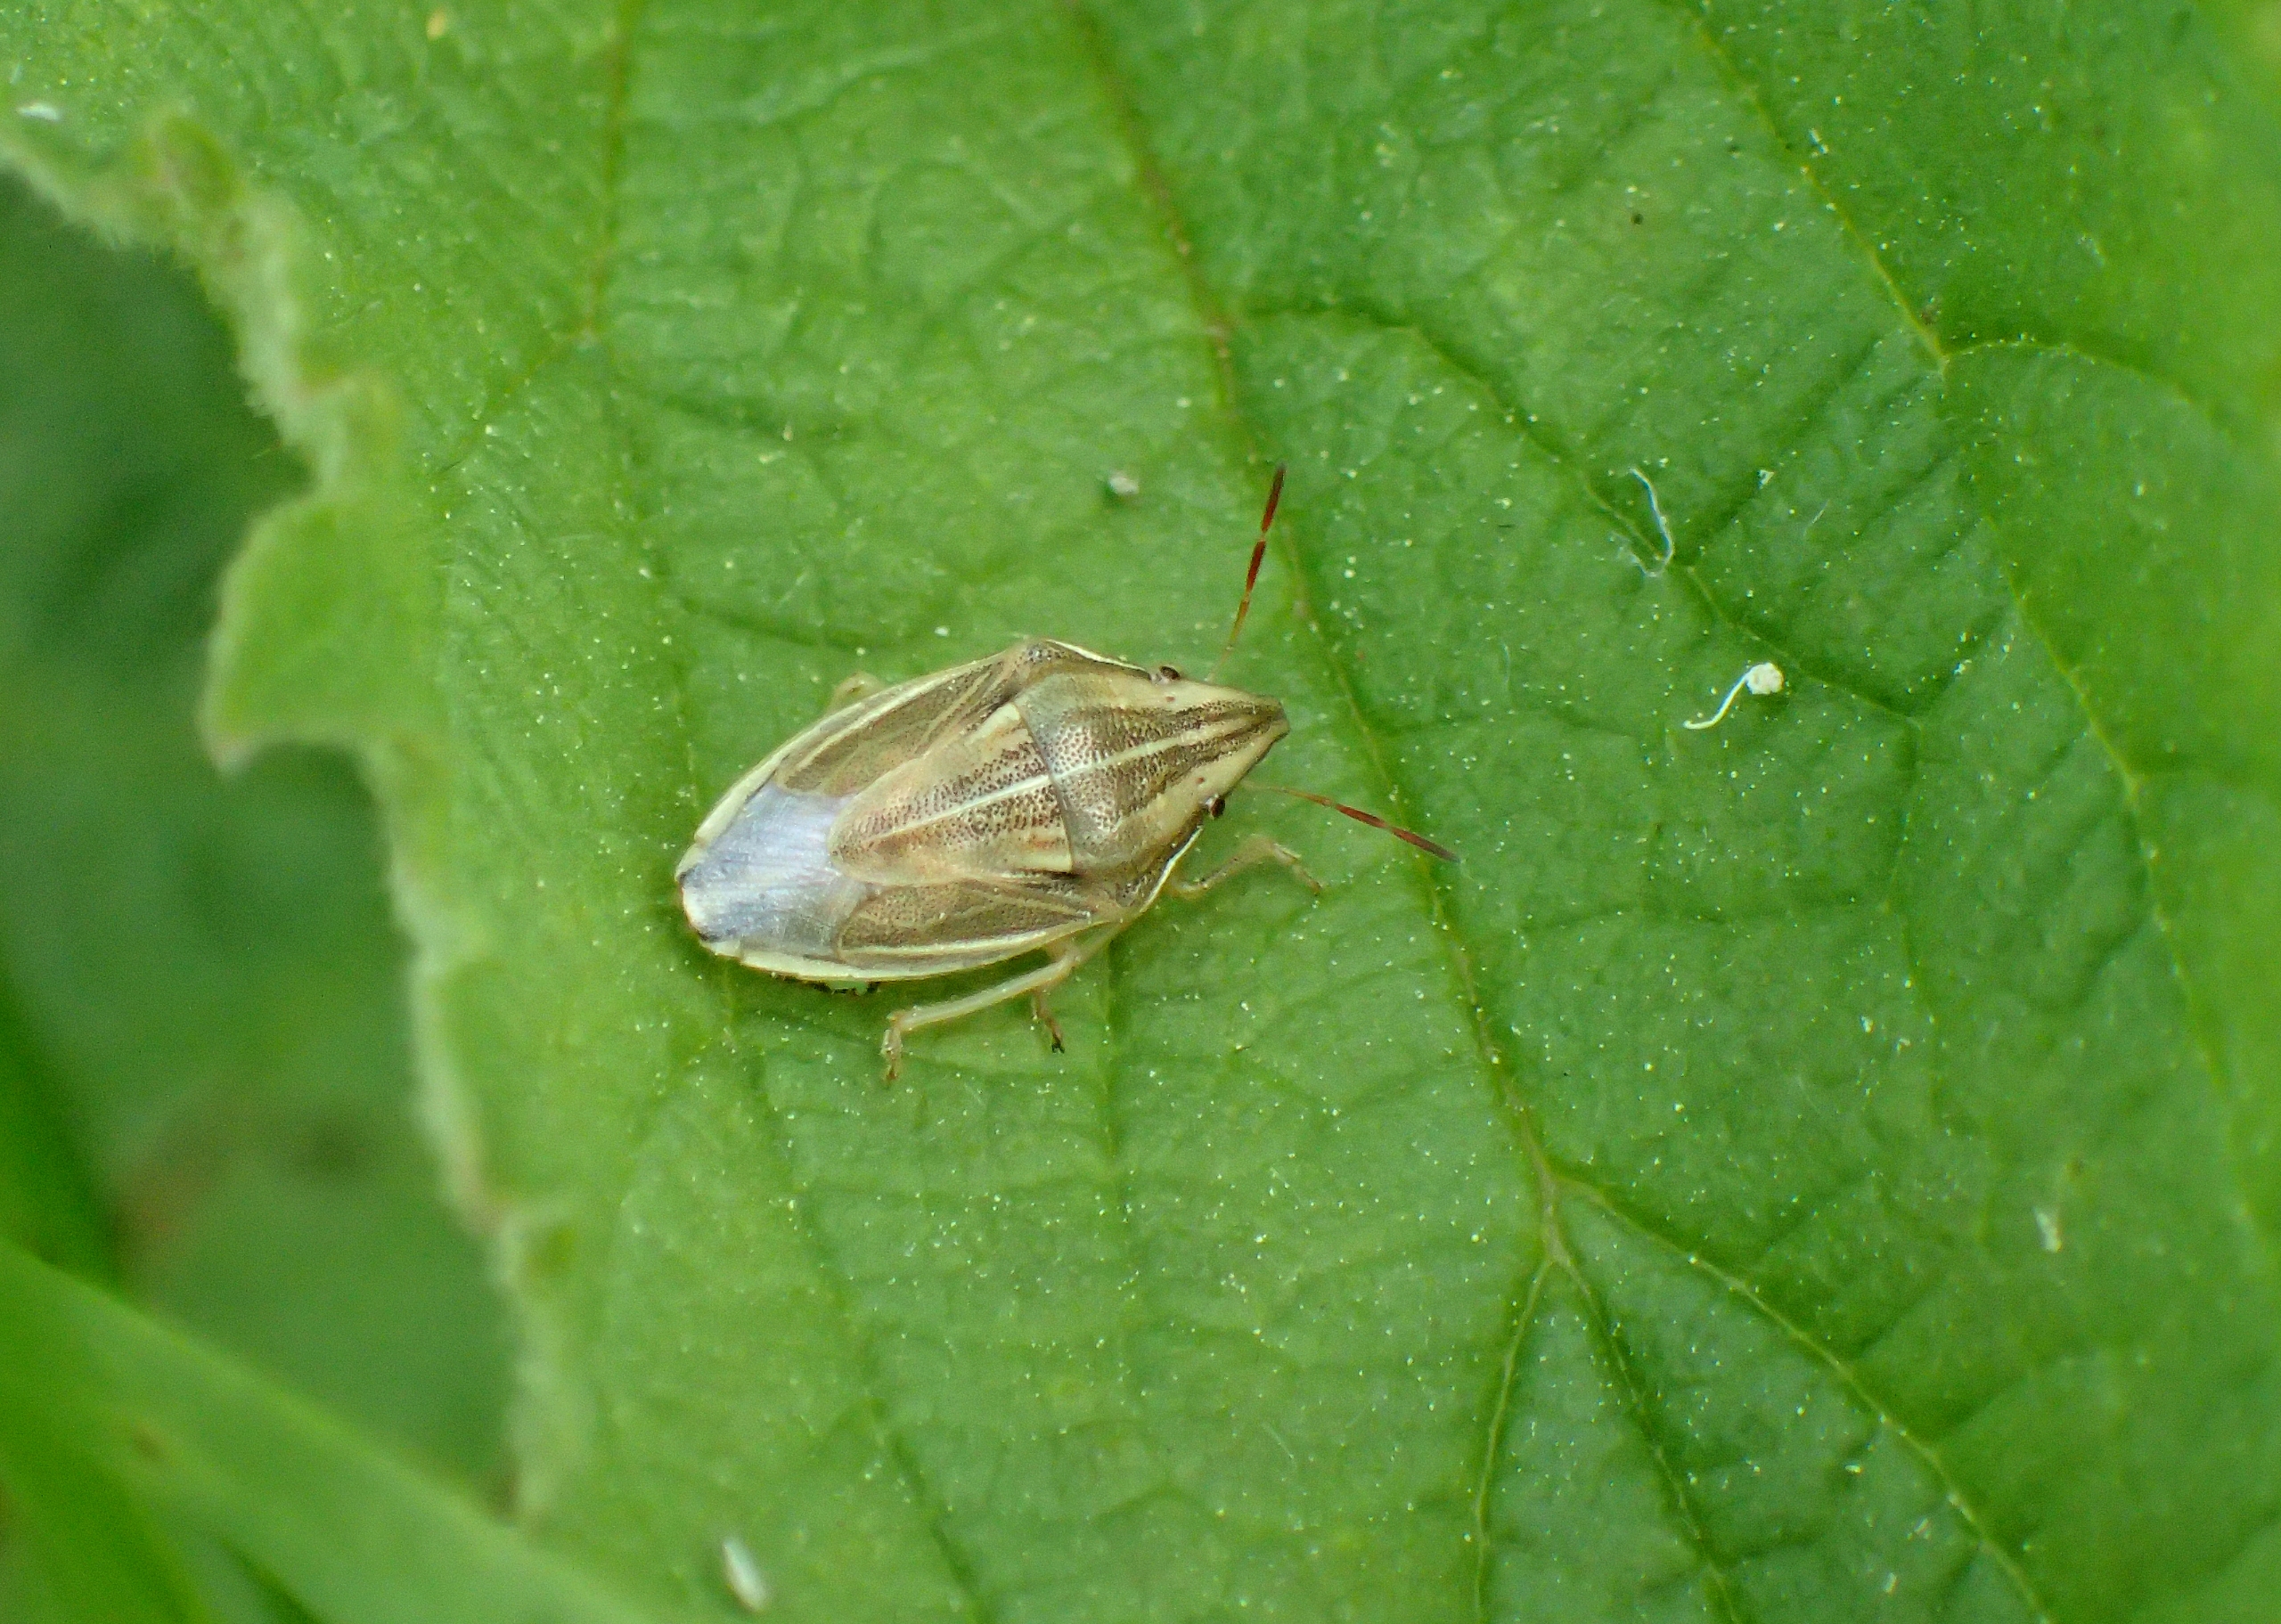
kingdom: Animalia
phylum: Arthropoda
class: Insecta
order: Hemiptera
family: Pentatomidae
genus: Aelia
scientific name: Aelia acuminata
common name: Almindelig bispetæge
